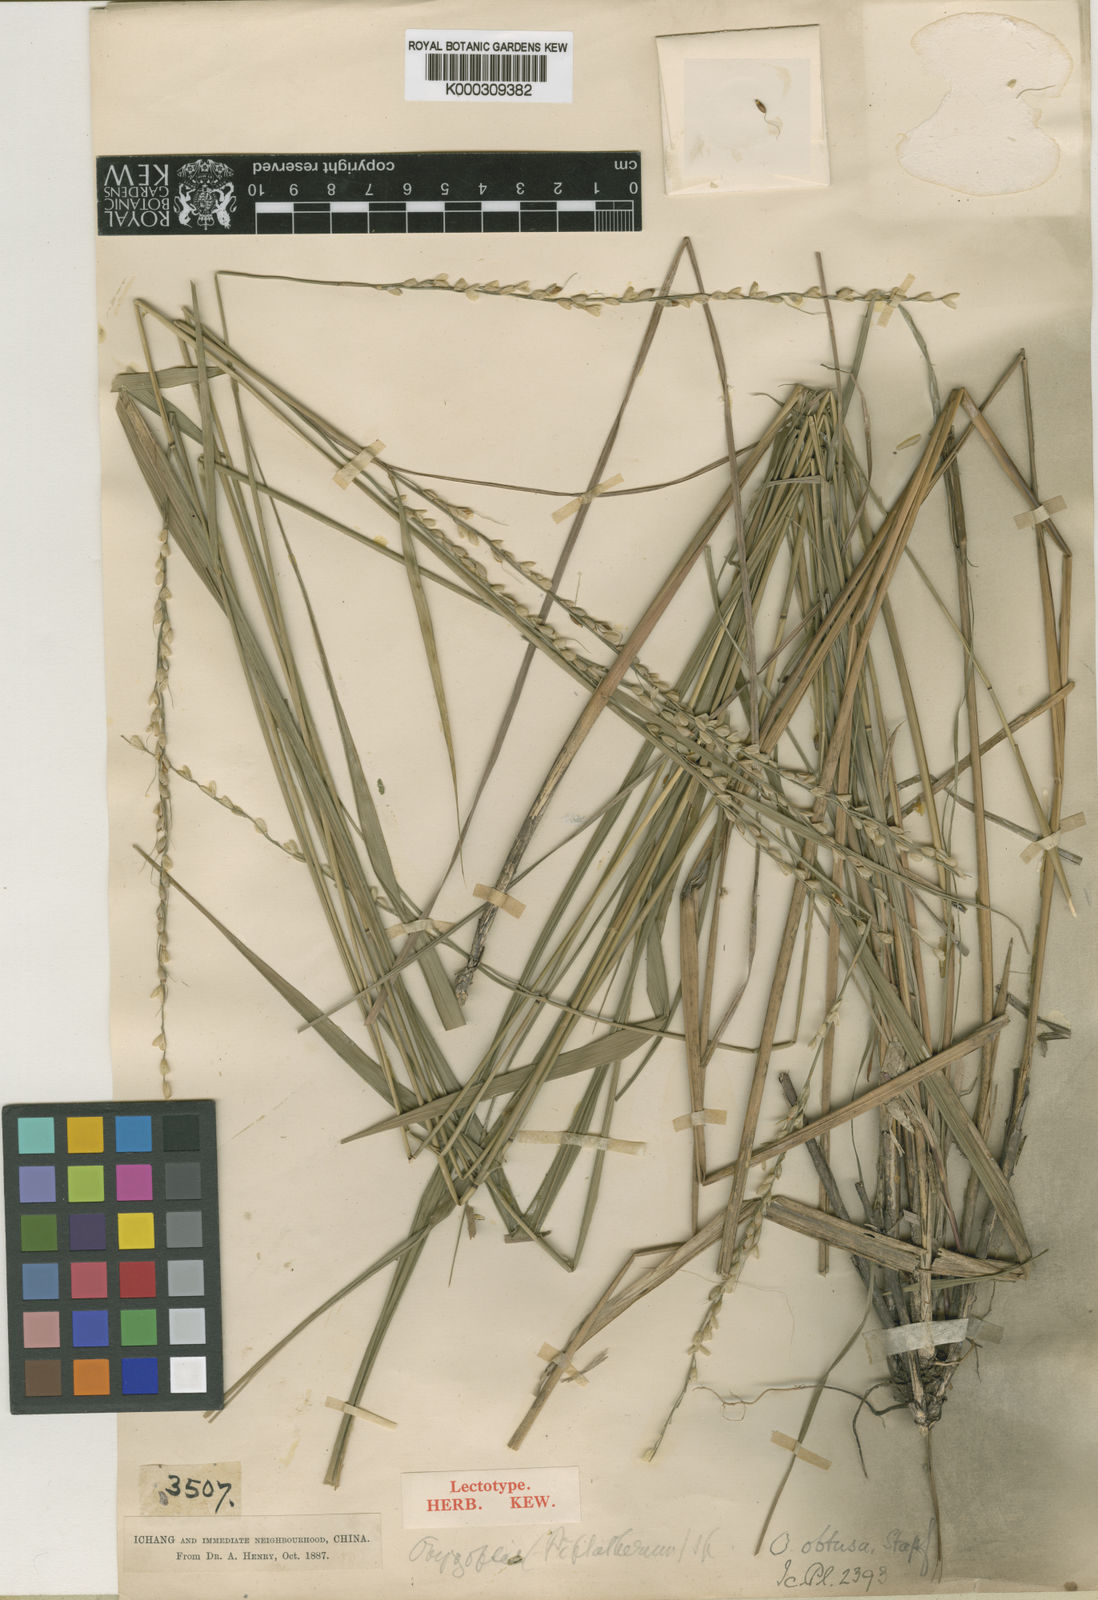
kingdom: Plantae
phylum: Tracheophyta
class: Liliopsida
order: Poales
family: Poaceae
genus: Patis
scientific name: Patis obtusa
